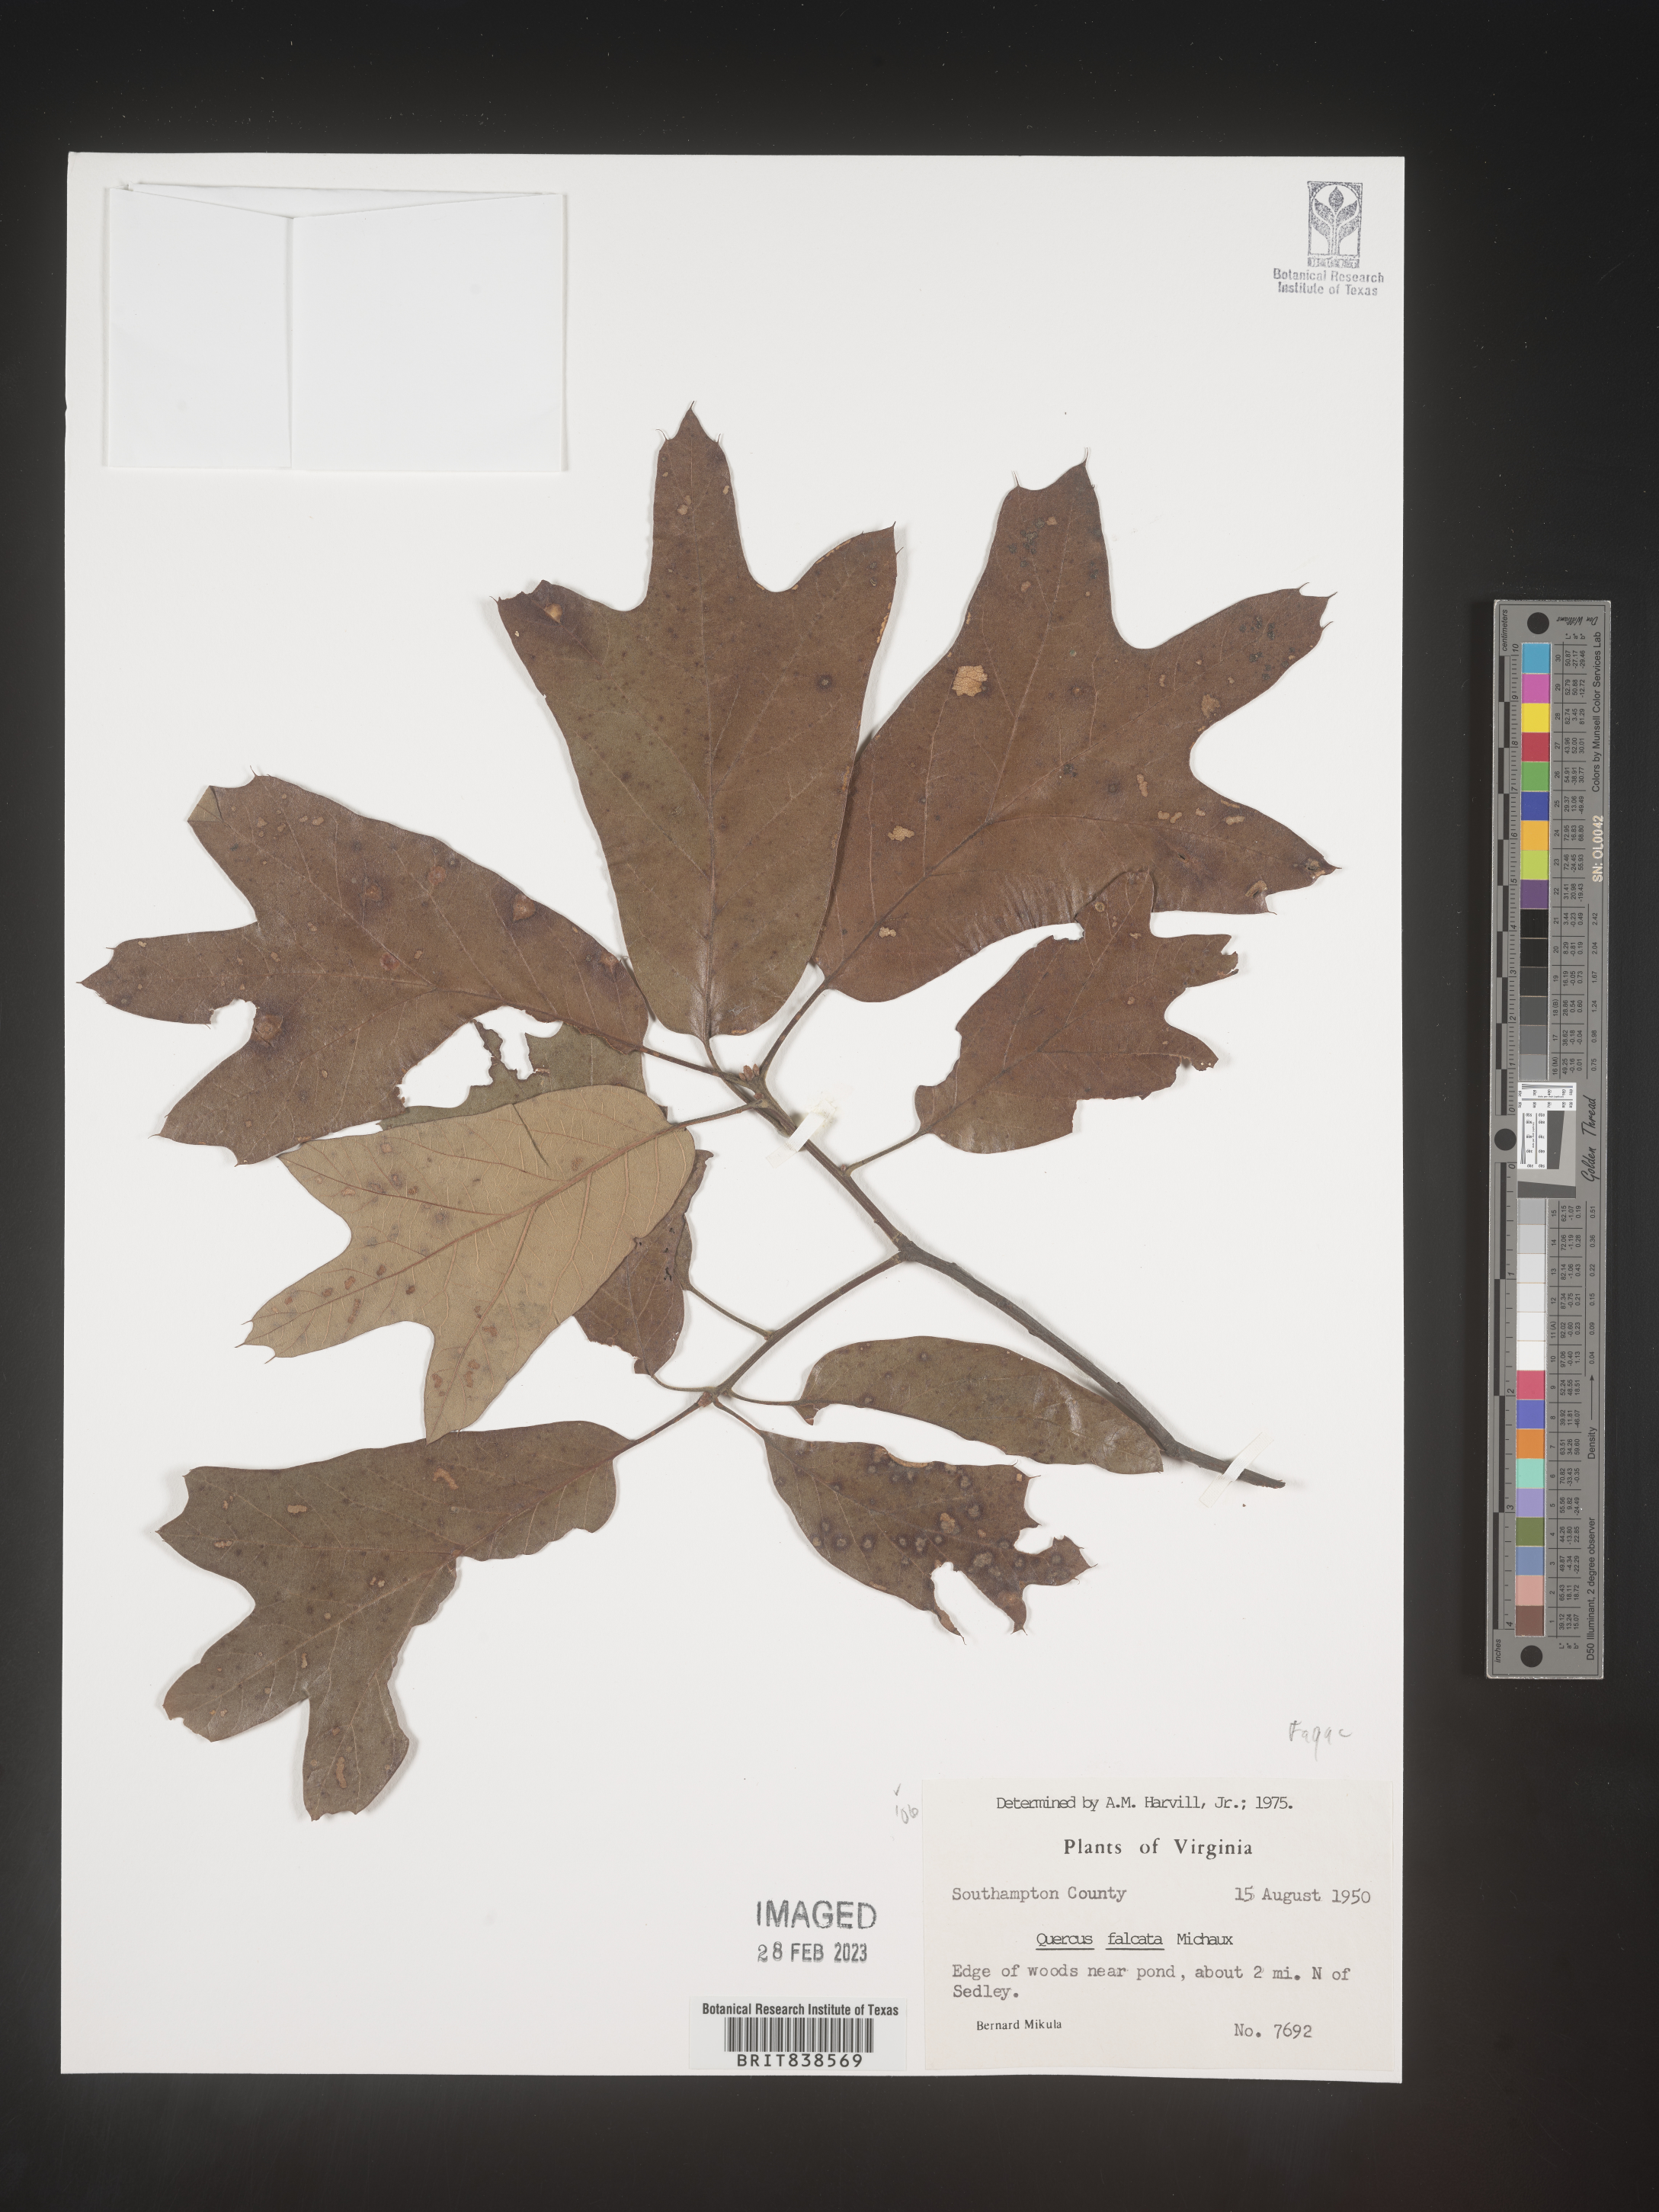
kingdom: Plantae
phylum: Tracheophyta
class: Magnoliopsida
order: Fagales
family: Fagaceae
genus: Quercus
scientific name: Quercus falcata
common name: Southern red oak
